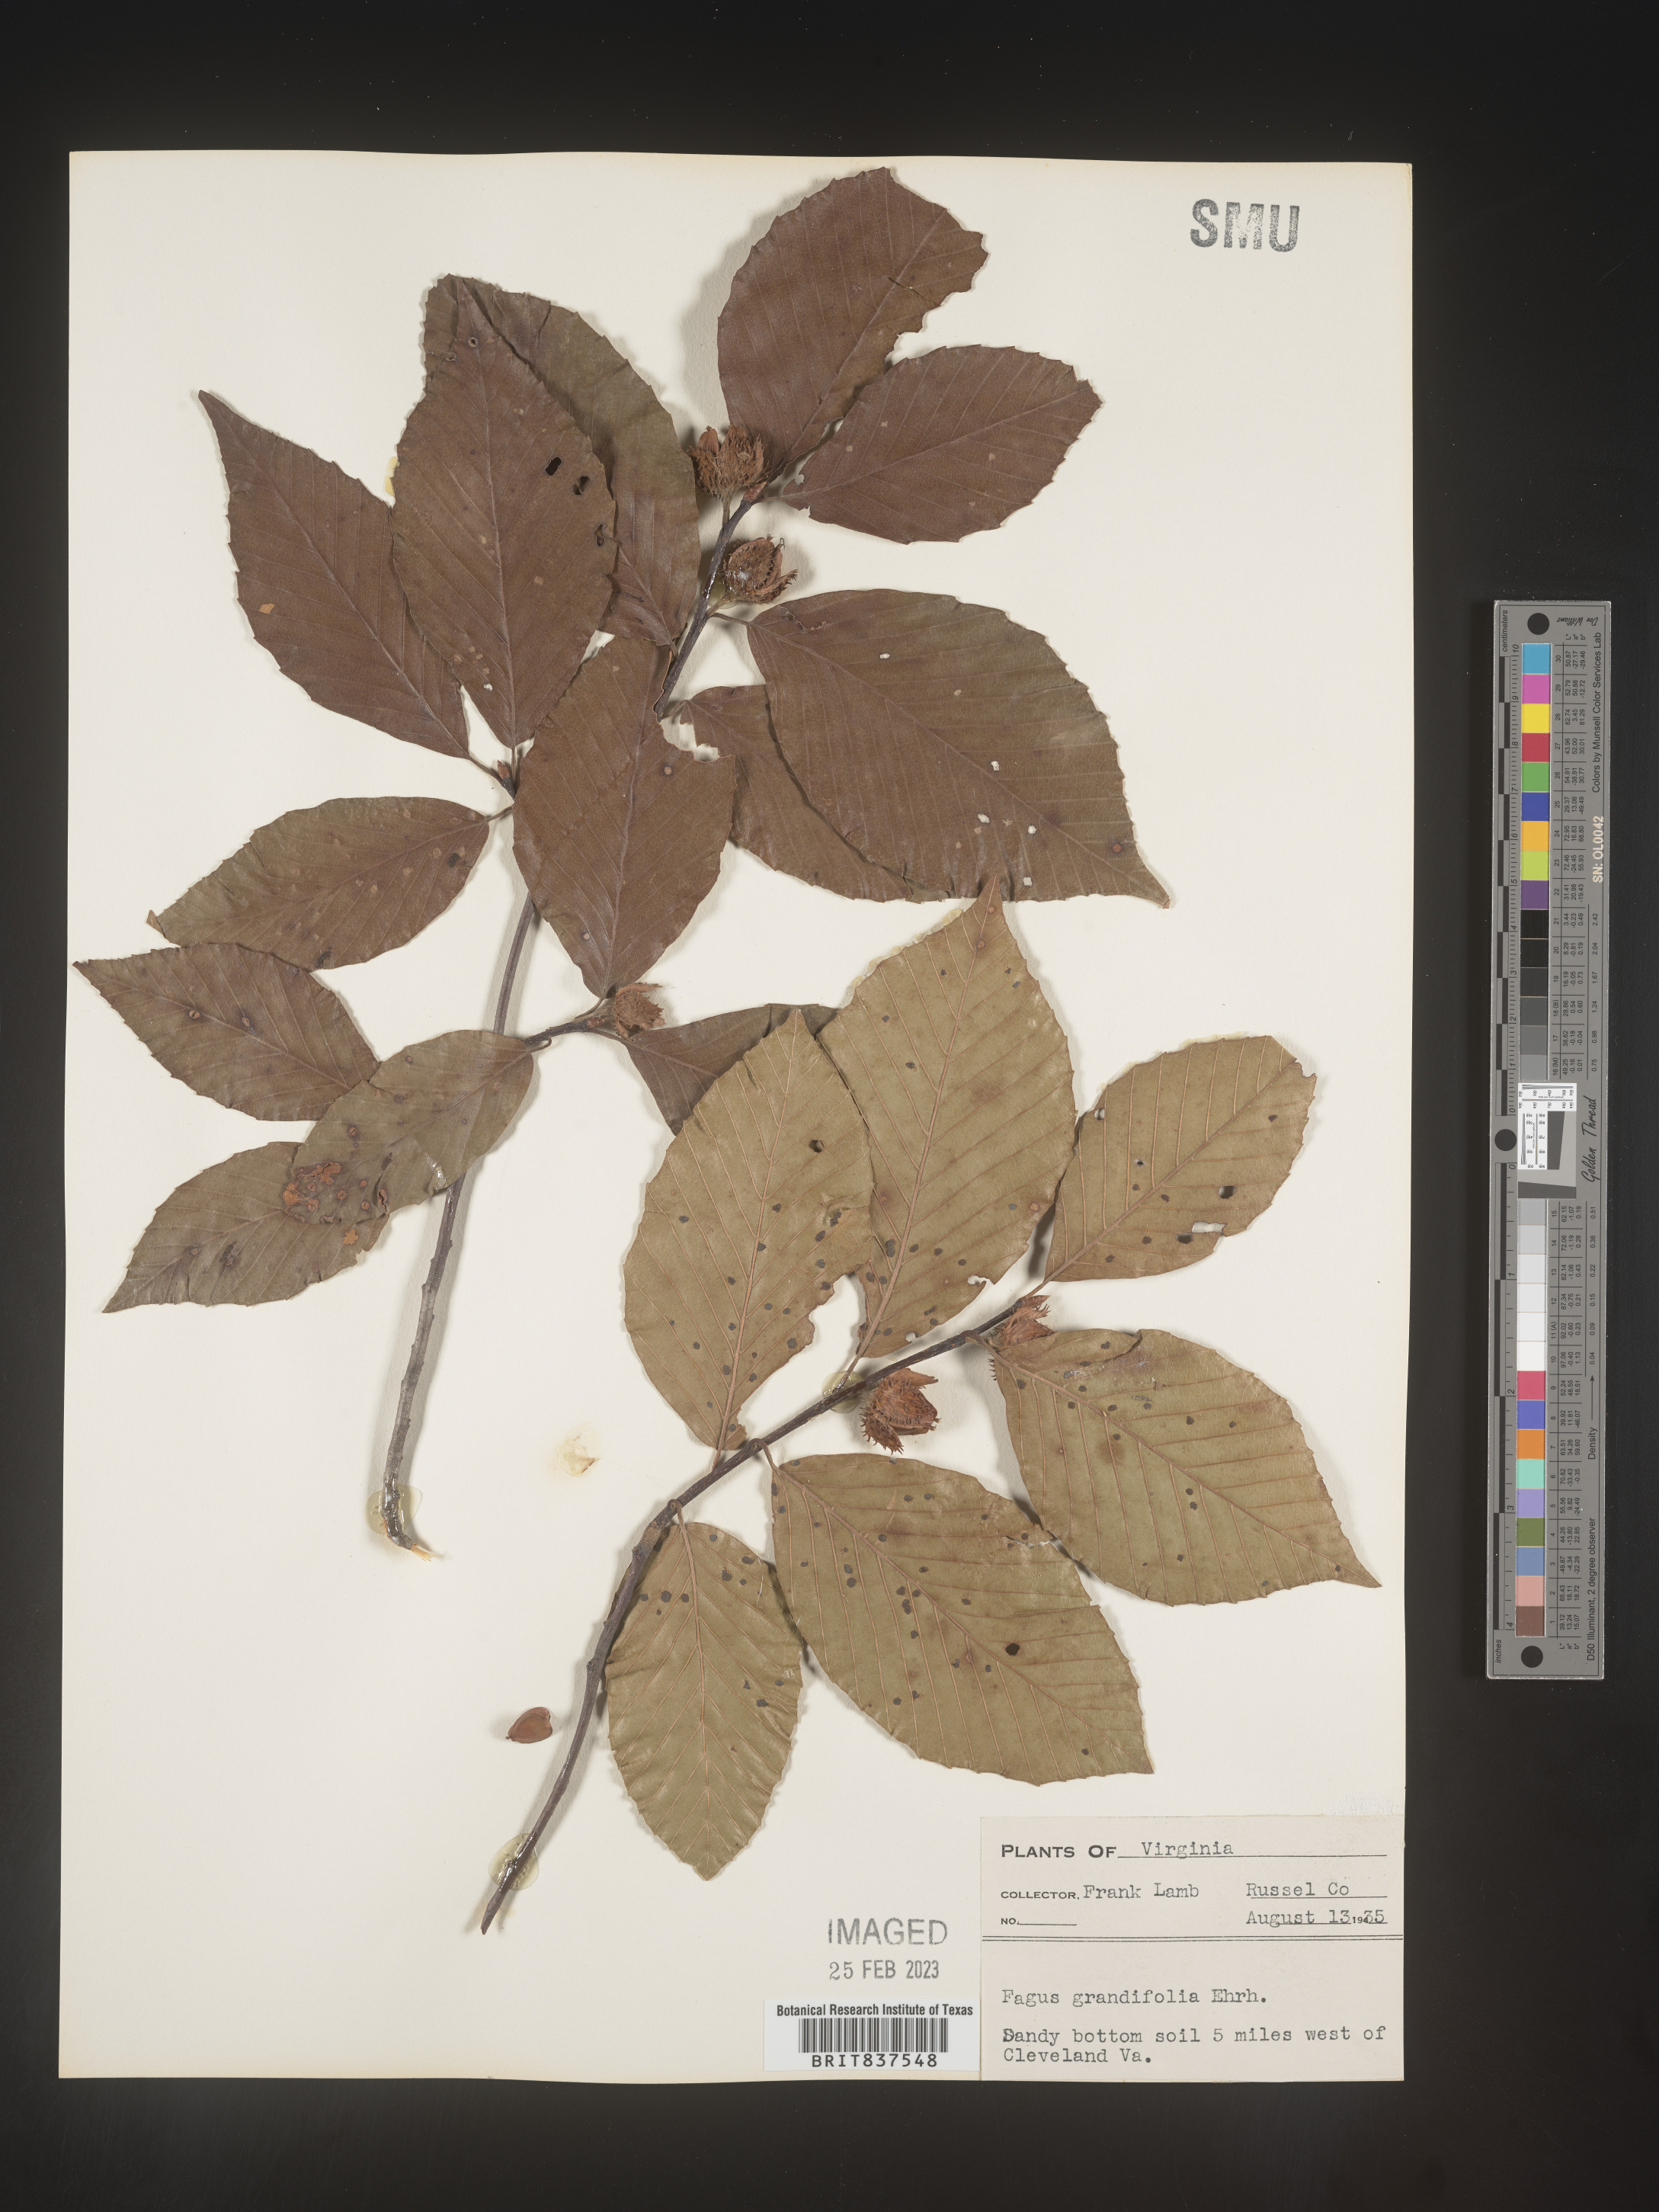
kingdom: Plantae
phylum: Tracheophyta
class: Magnoliopsida
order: Fagales
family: Fagaceae
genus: Fagus
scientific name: Fagus grandifolia
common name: American beech
